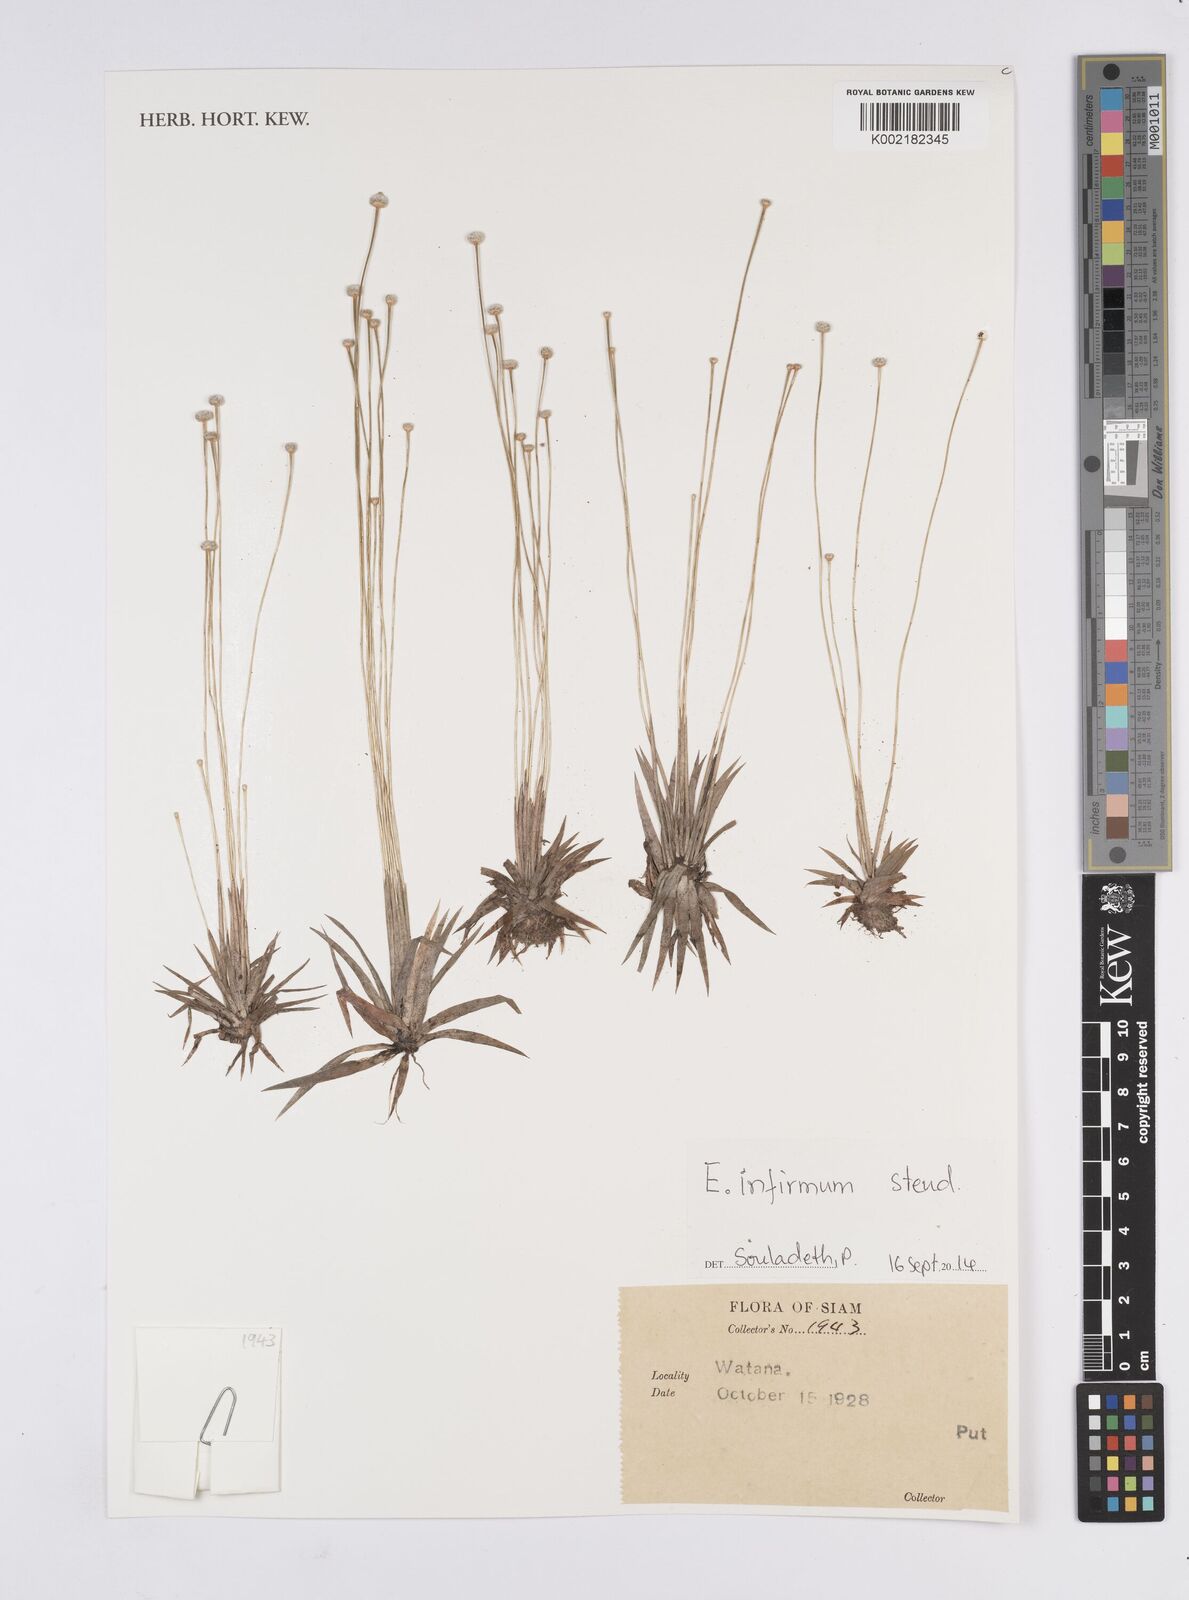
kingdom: Plantae
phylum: Tracheophyta
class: Liliopsida
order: Poales
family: Eriocaulaceae
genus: Eriocaulon
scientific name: Eriocaulon infirmum
